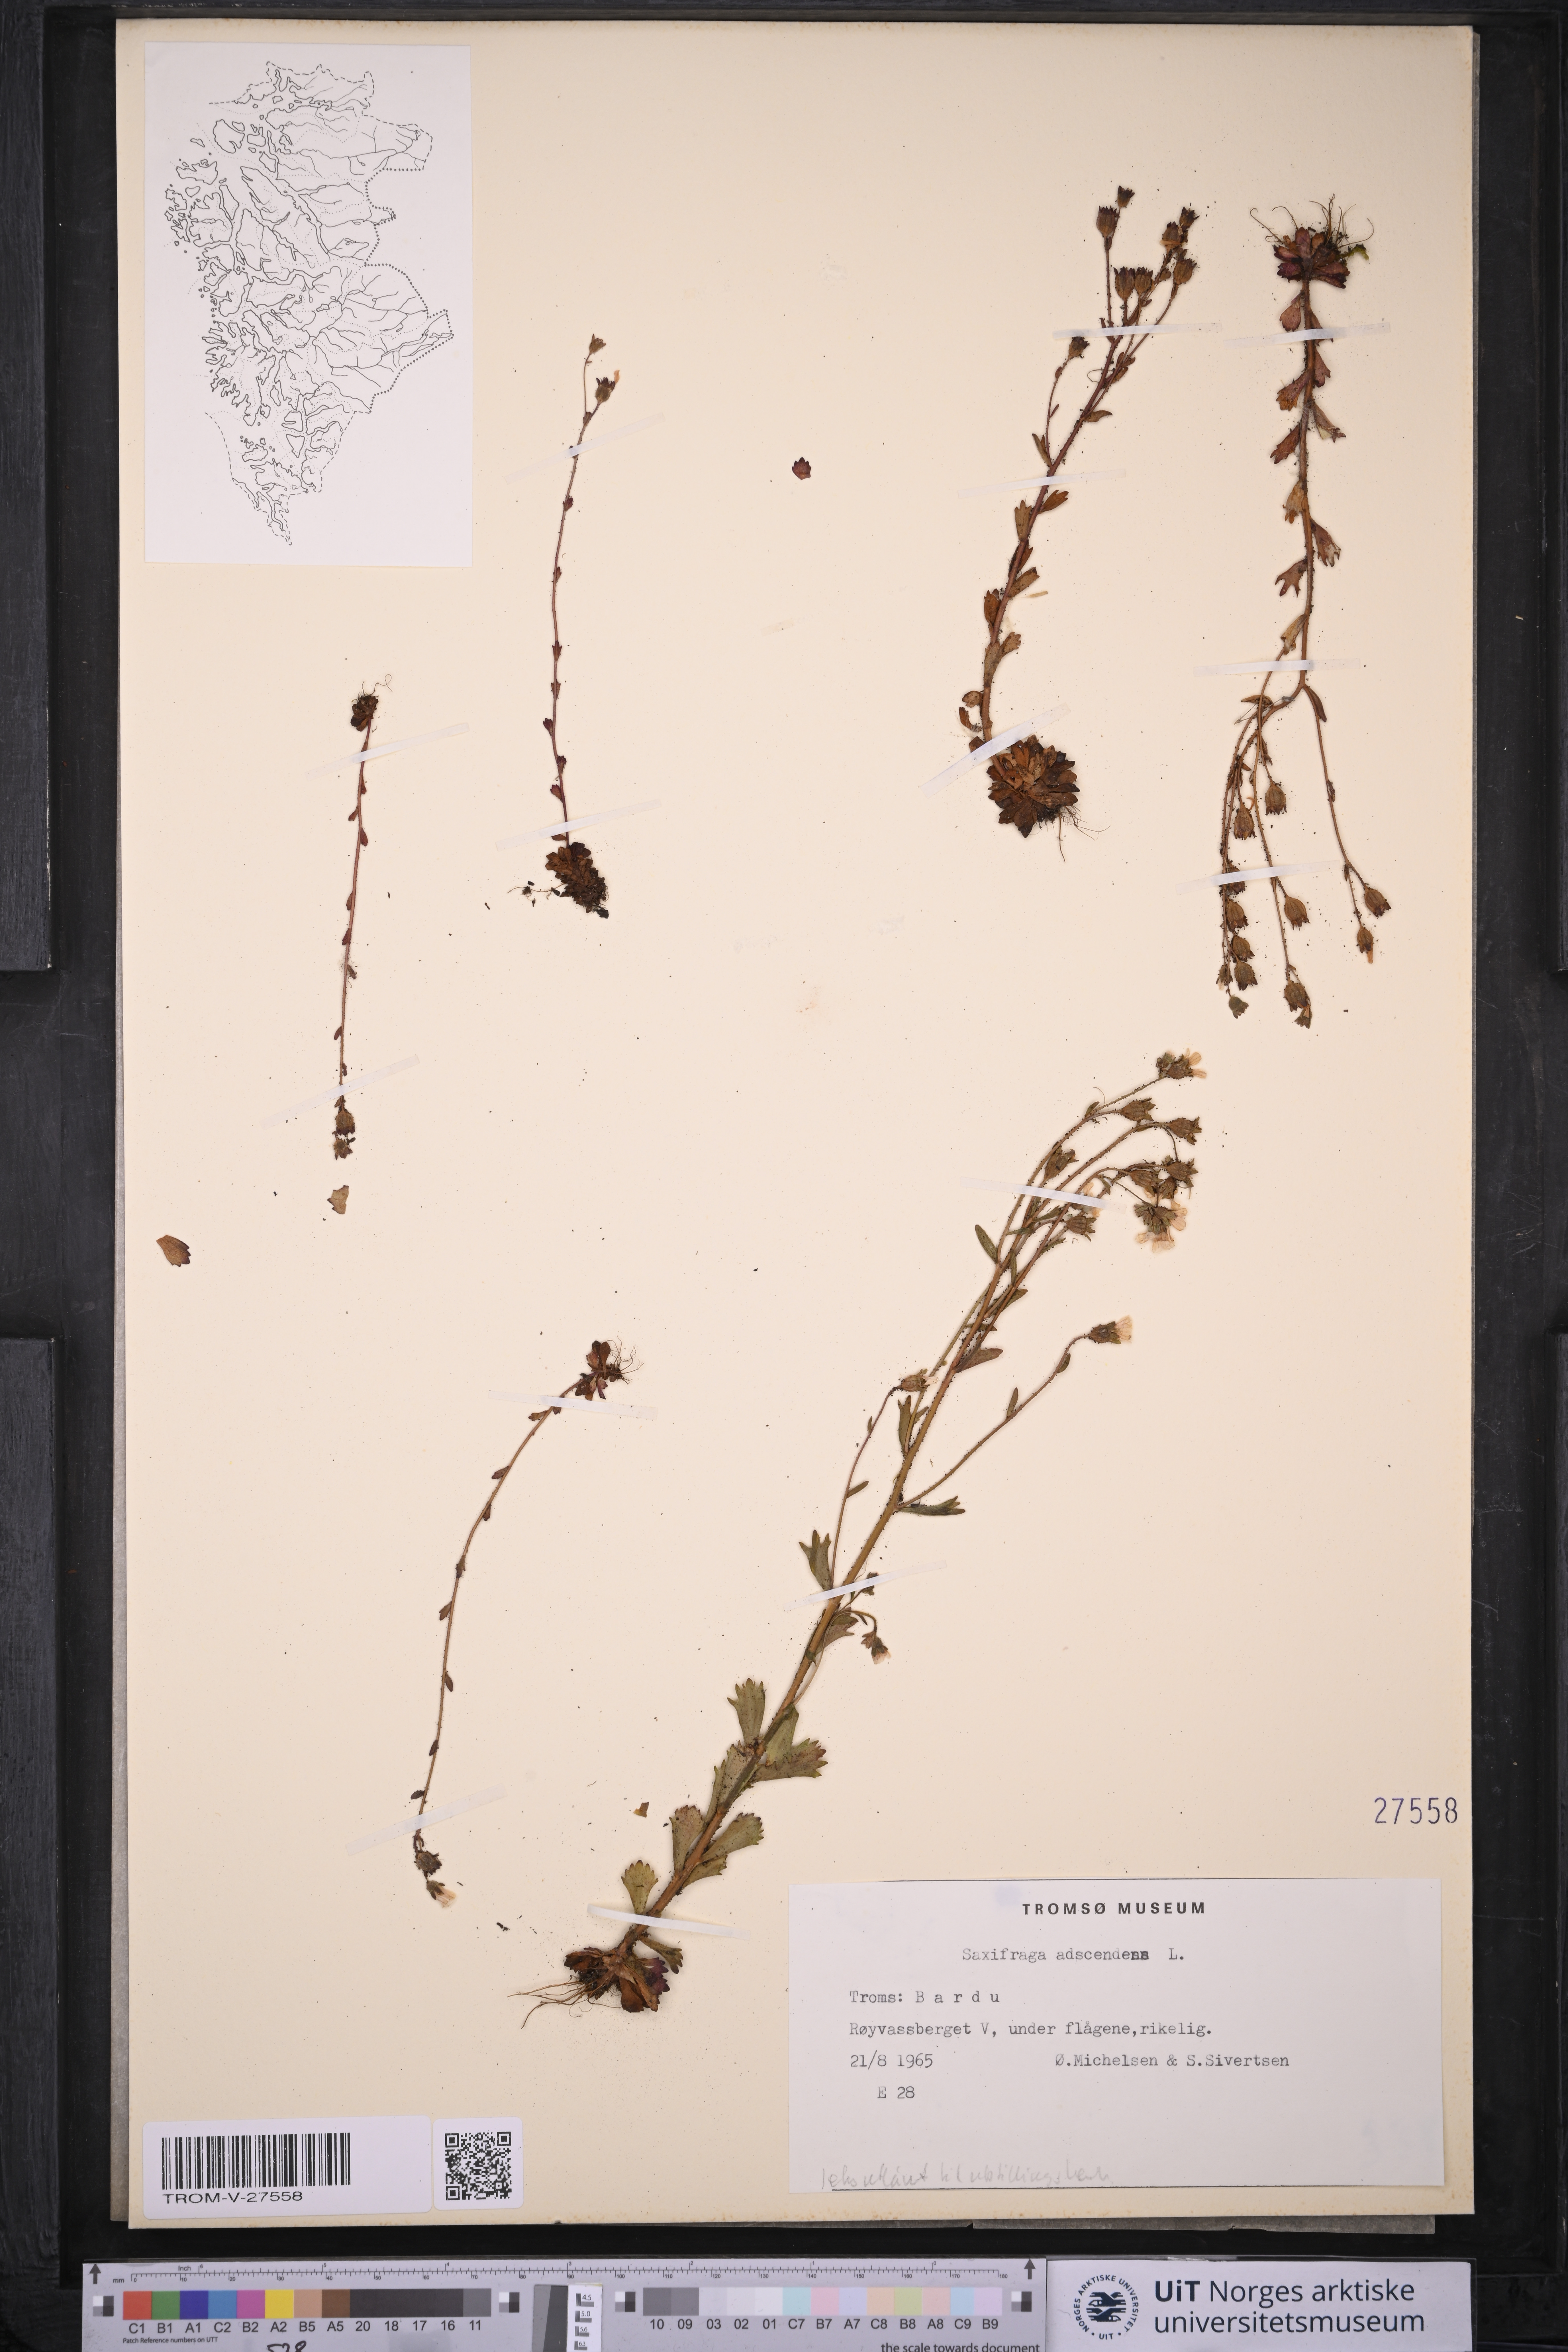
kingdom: Plantae
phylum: Tracheophyta
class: Magnoliopsida
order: Saxifragales
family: Saxifragaceae
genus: Saxifraga
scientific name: Saxifraga adscendens
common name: Ascending saxifrage
